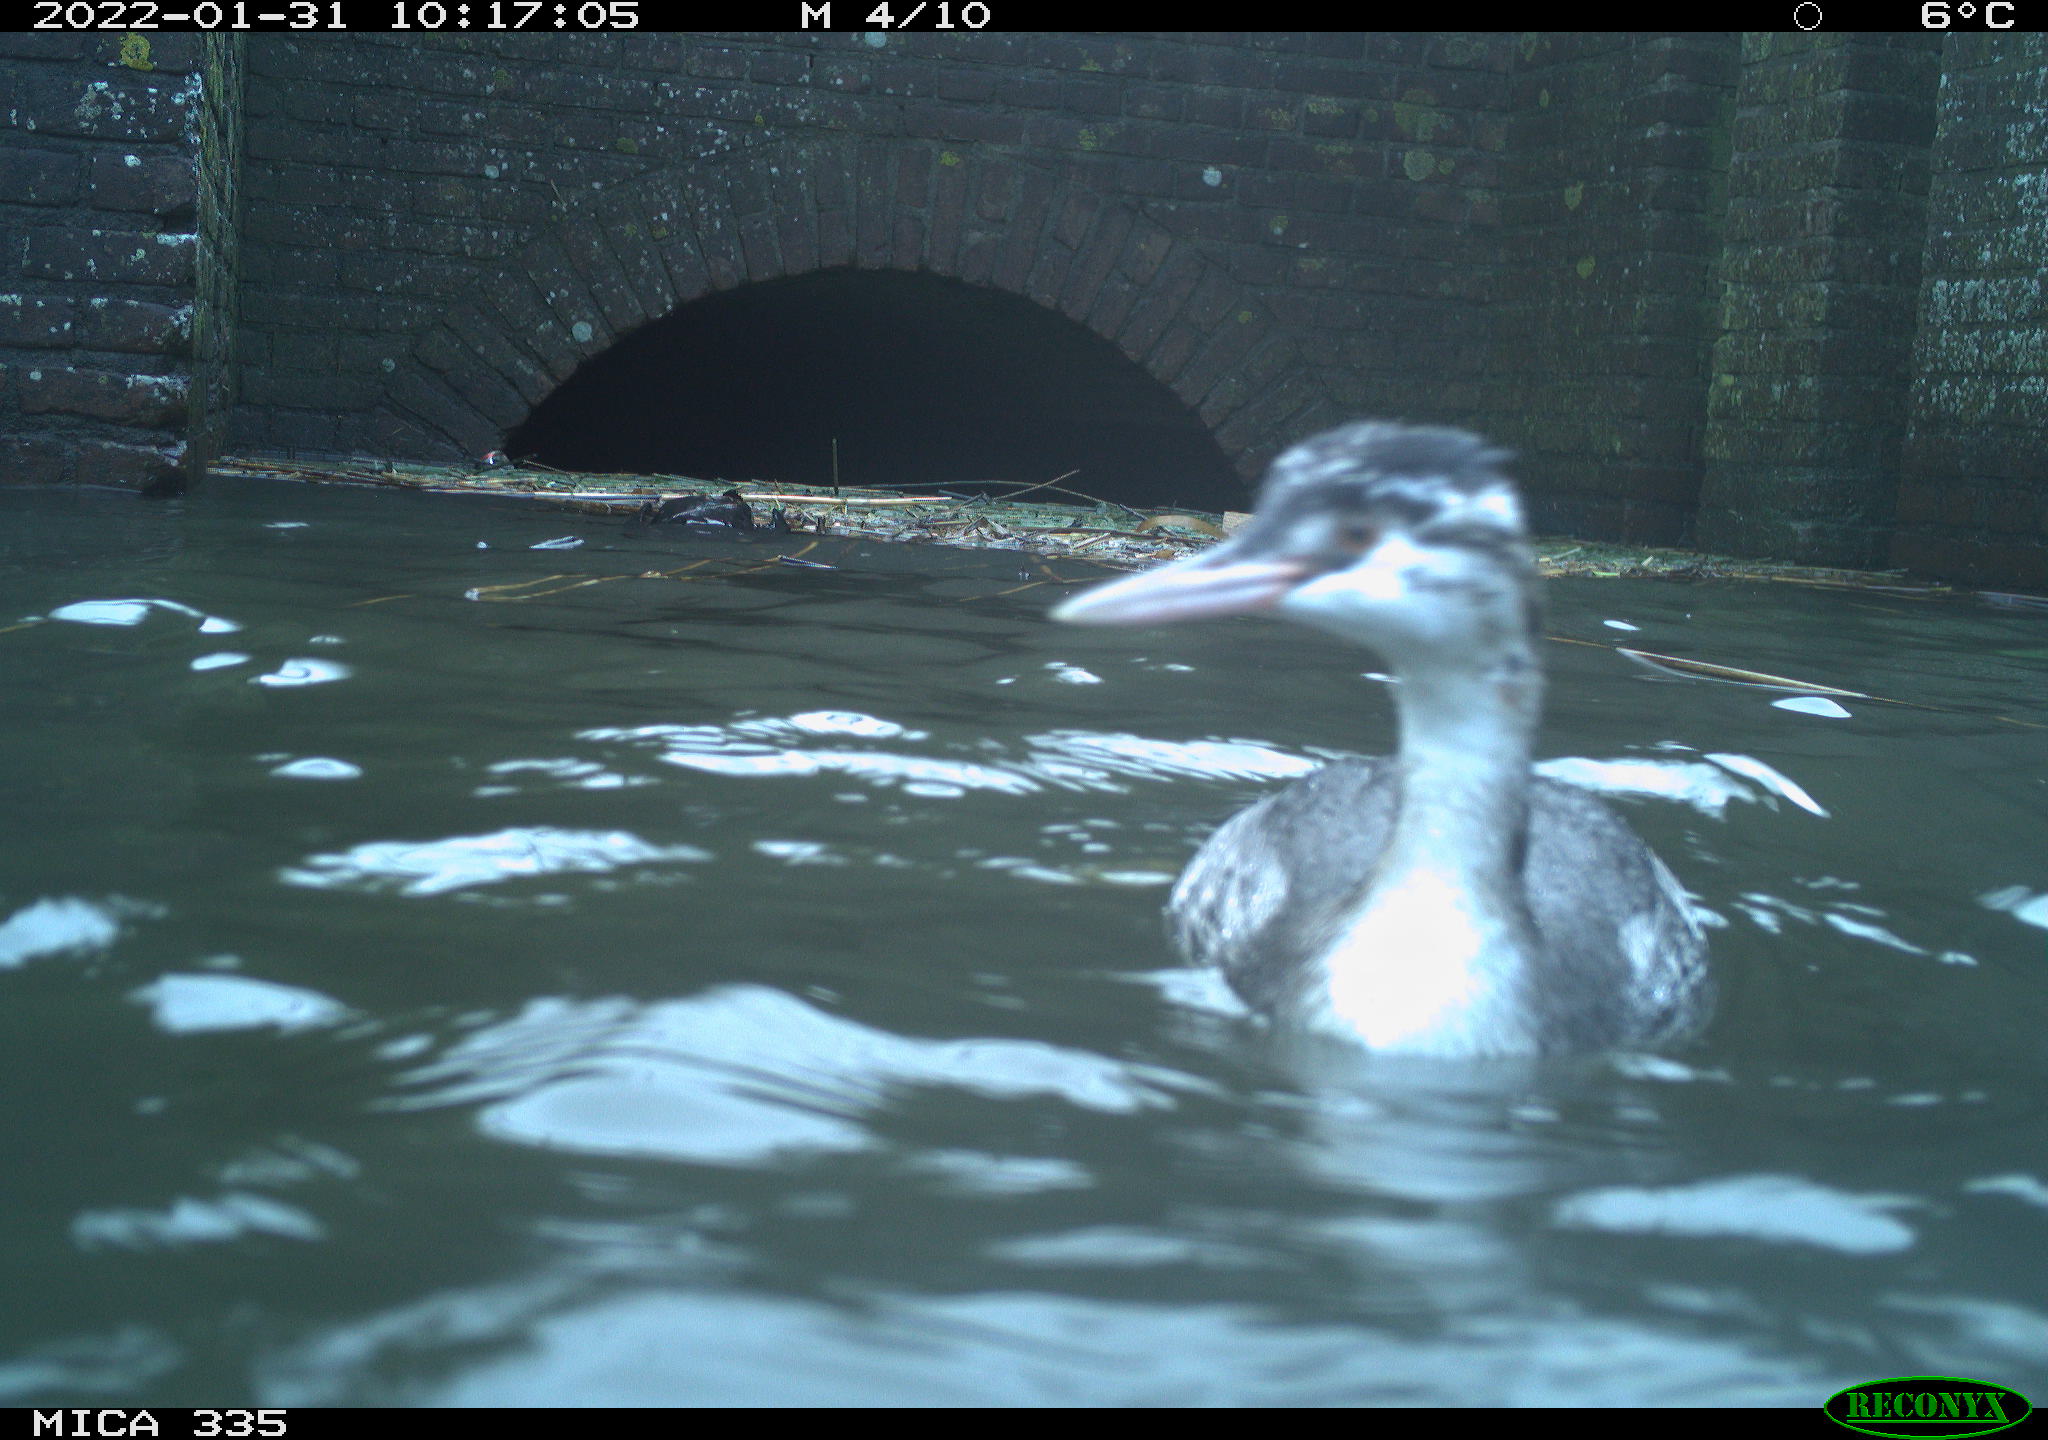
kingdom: Animalia
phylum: Chordata
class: Aves
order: Podicipediformes
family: Podicipedidae
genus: Podiceps
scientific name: Podiceps cristatus
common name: Great crested grebe
